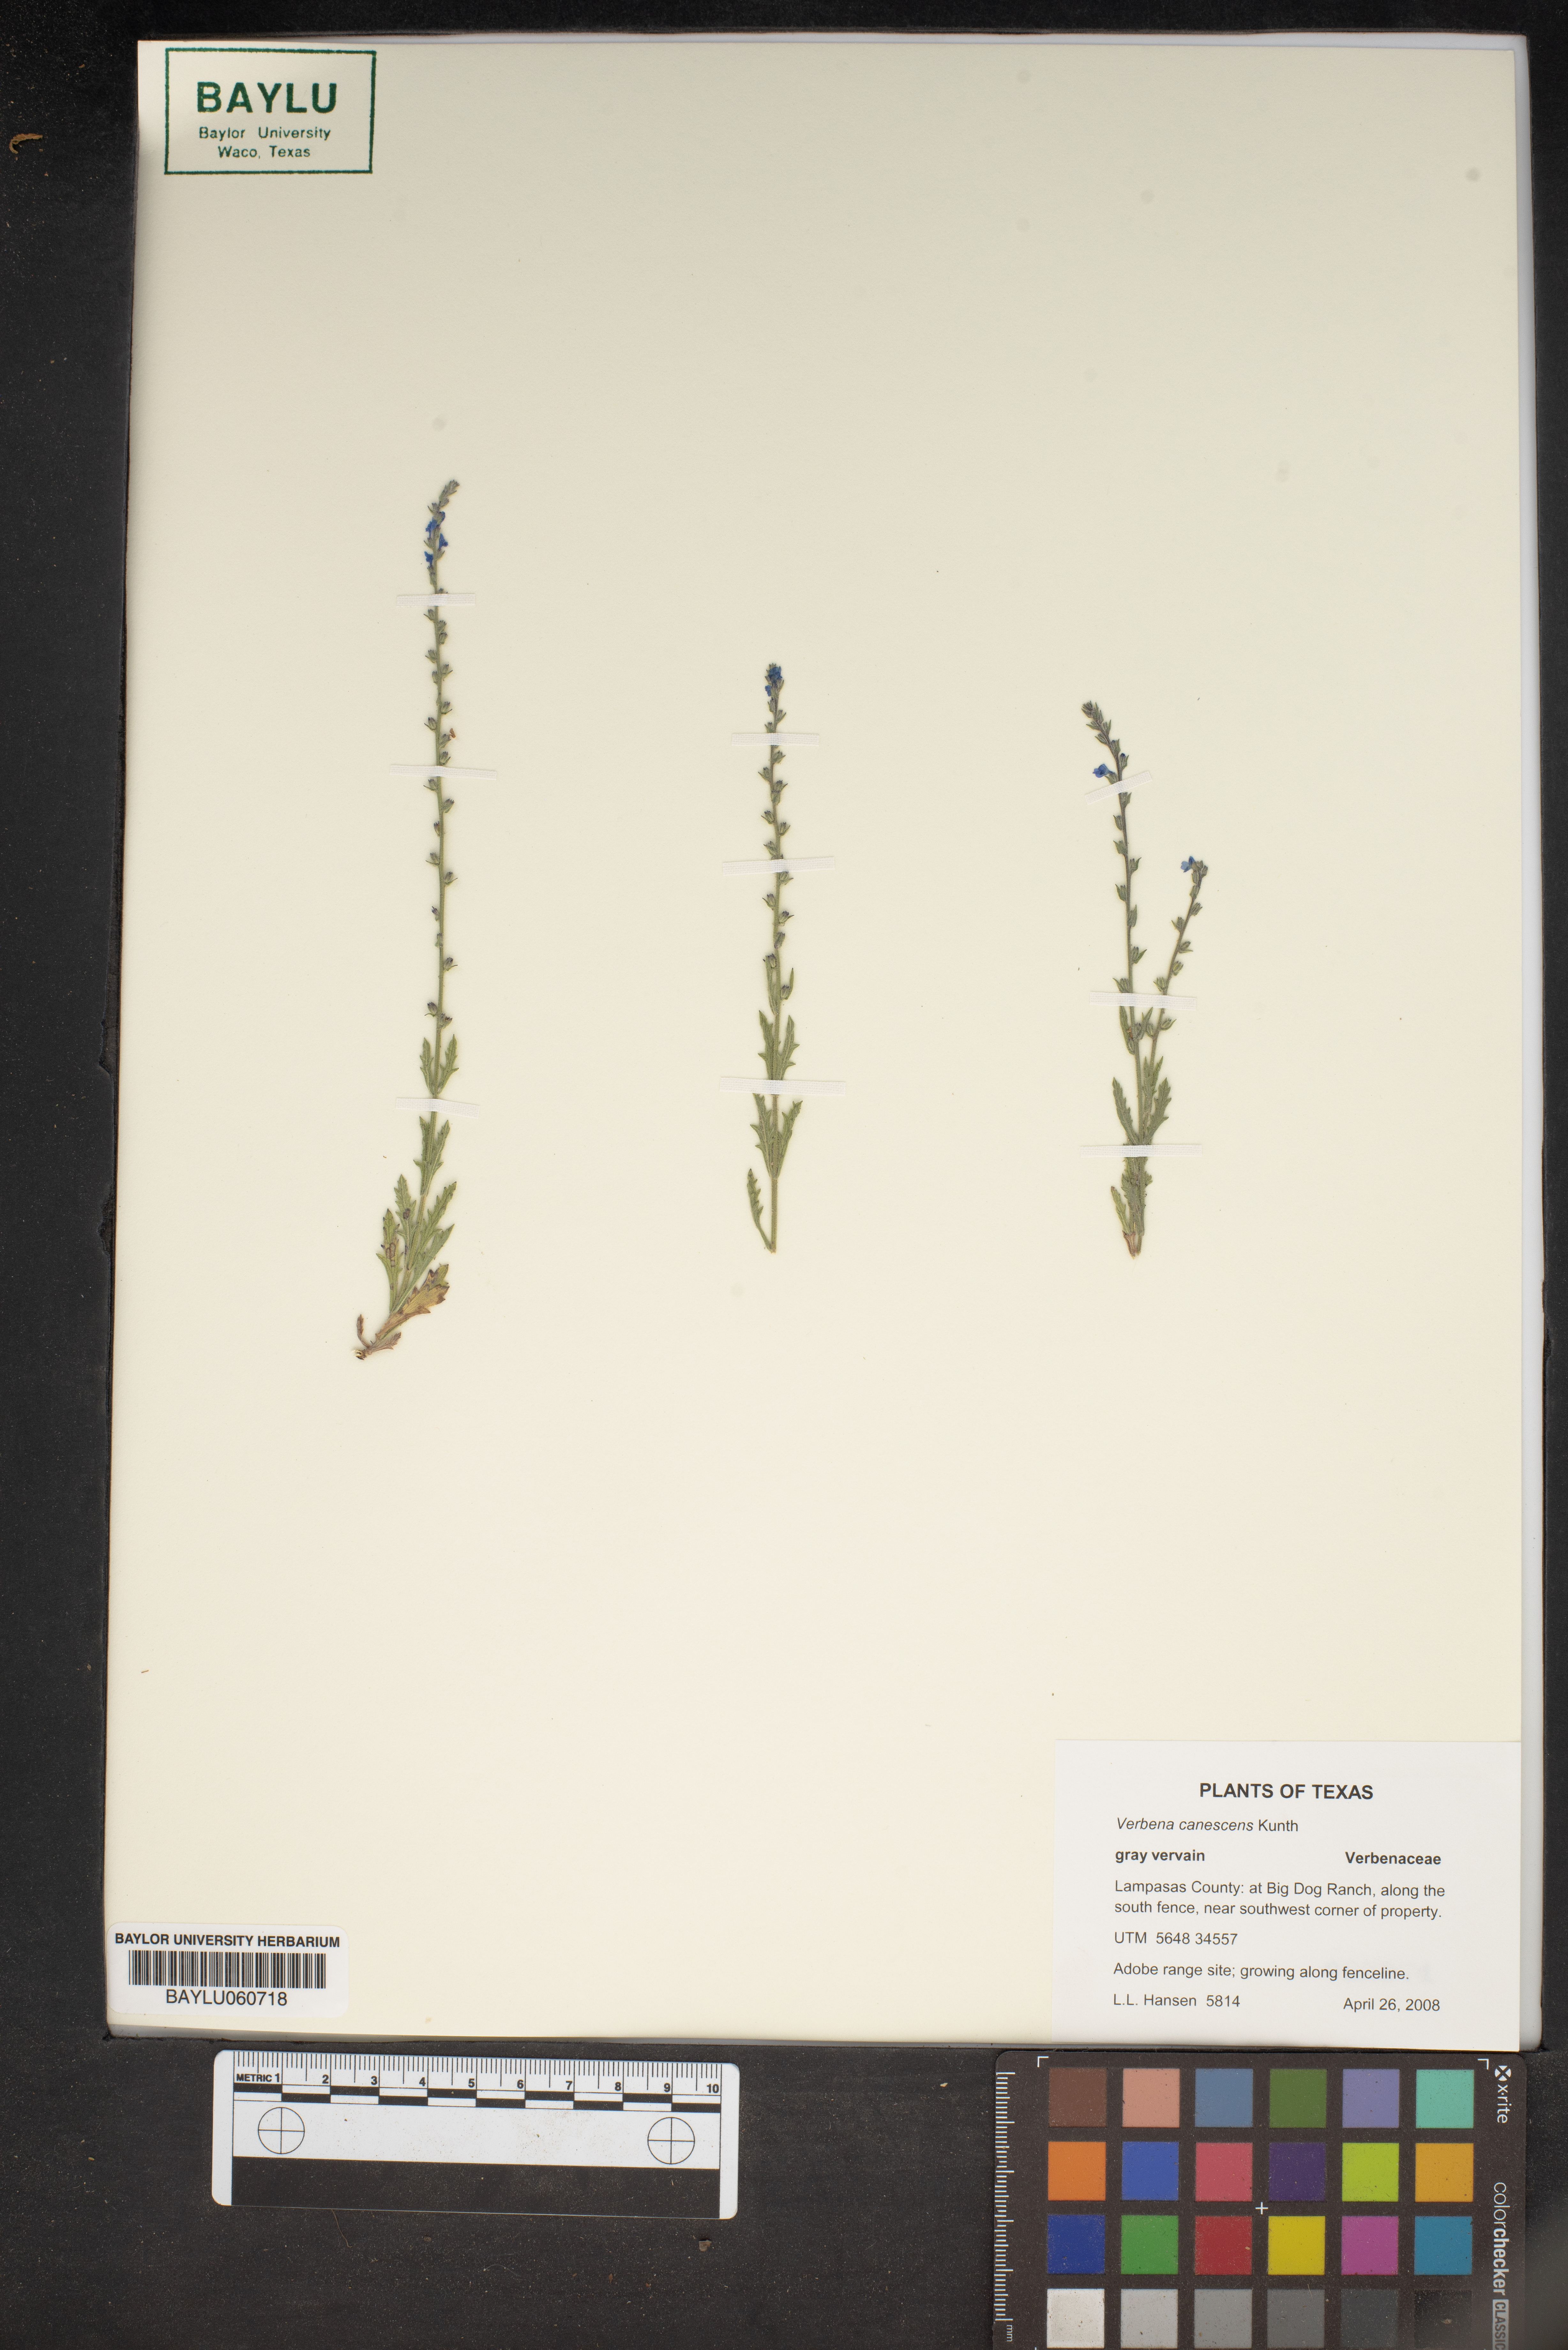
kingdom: Plantae
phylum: Tracheophyta
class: Magnoliopsida
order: Lamiales
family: Verbenaceae
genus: Verbena
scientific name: Verbena canescens
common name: Gray vervain
